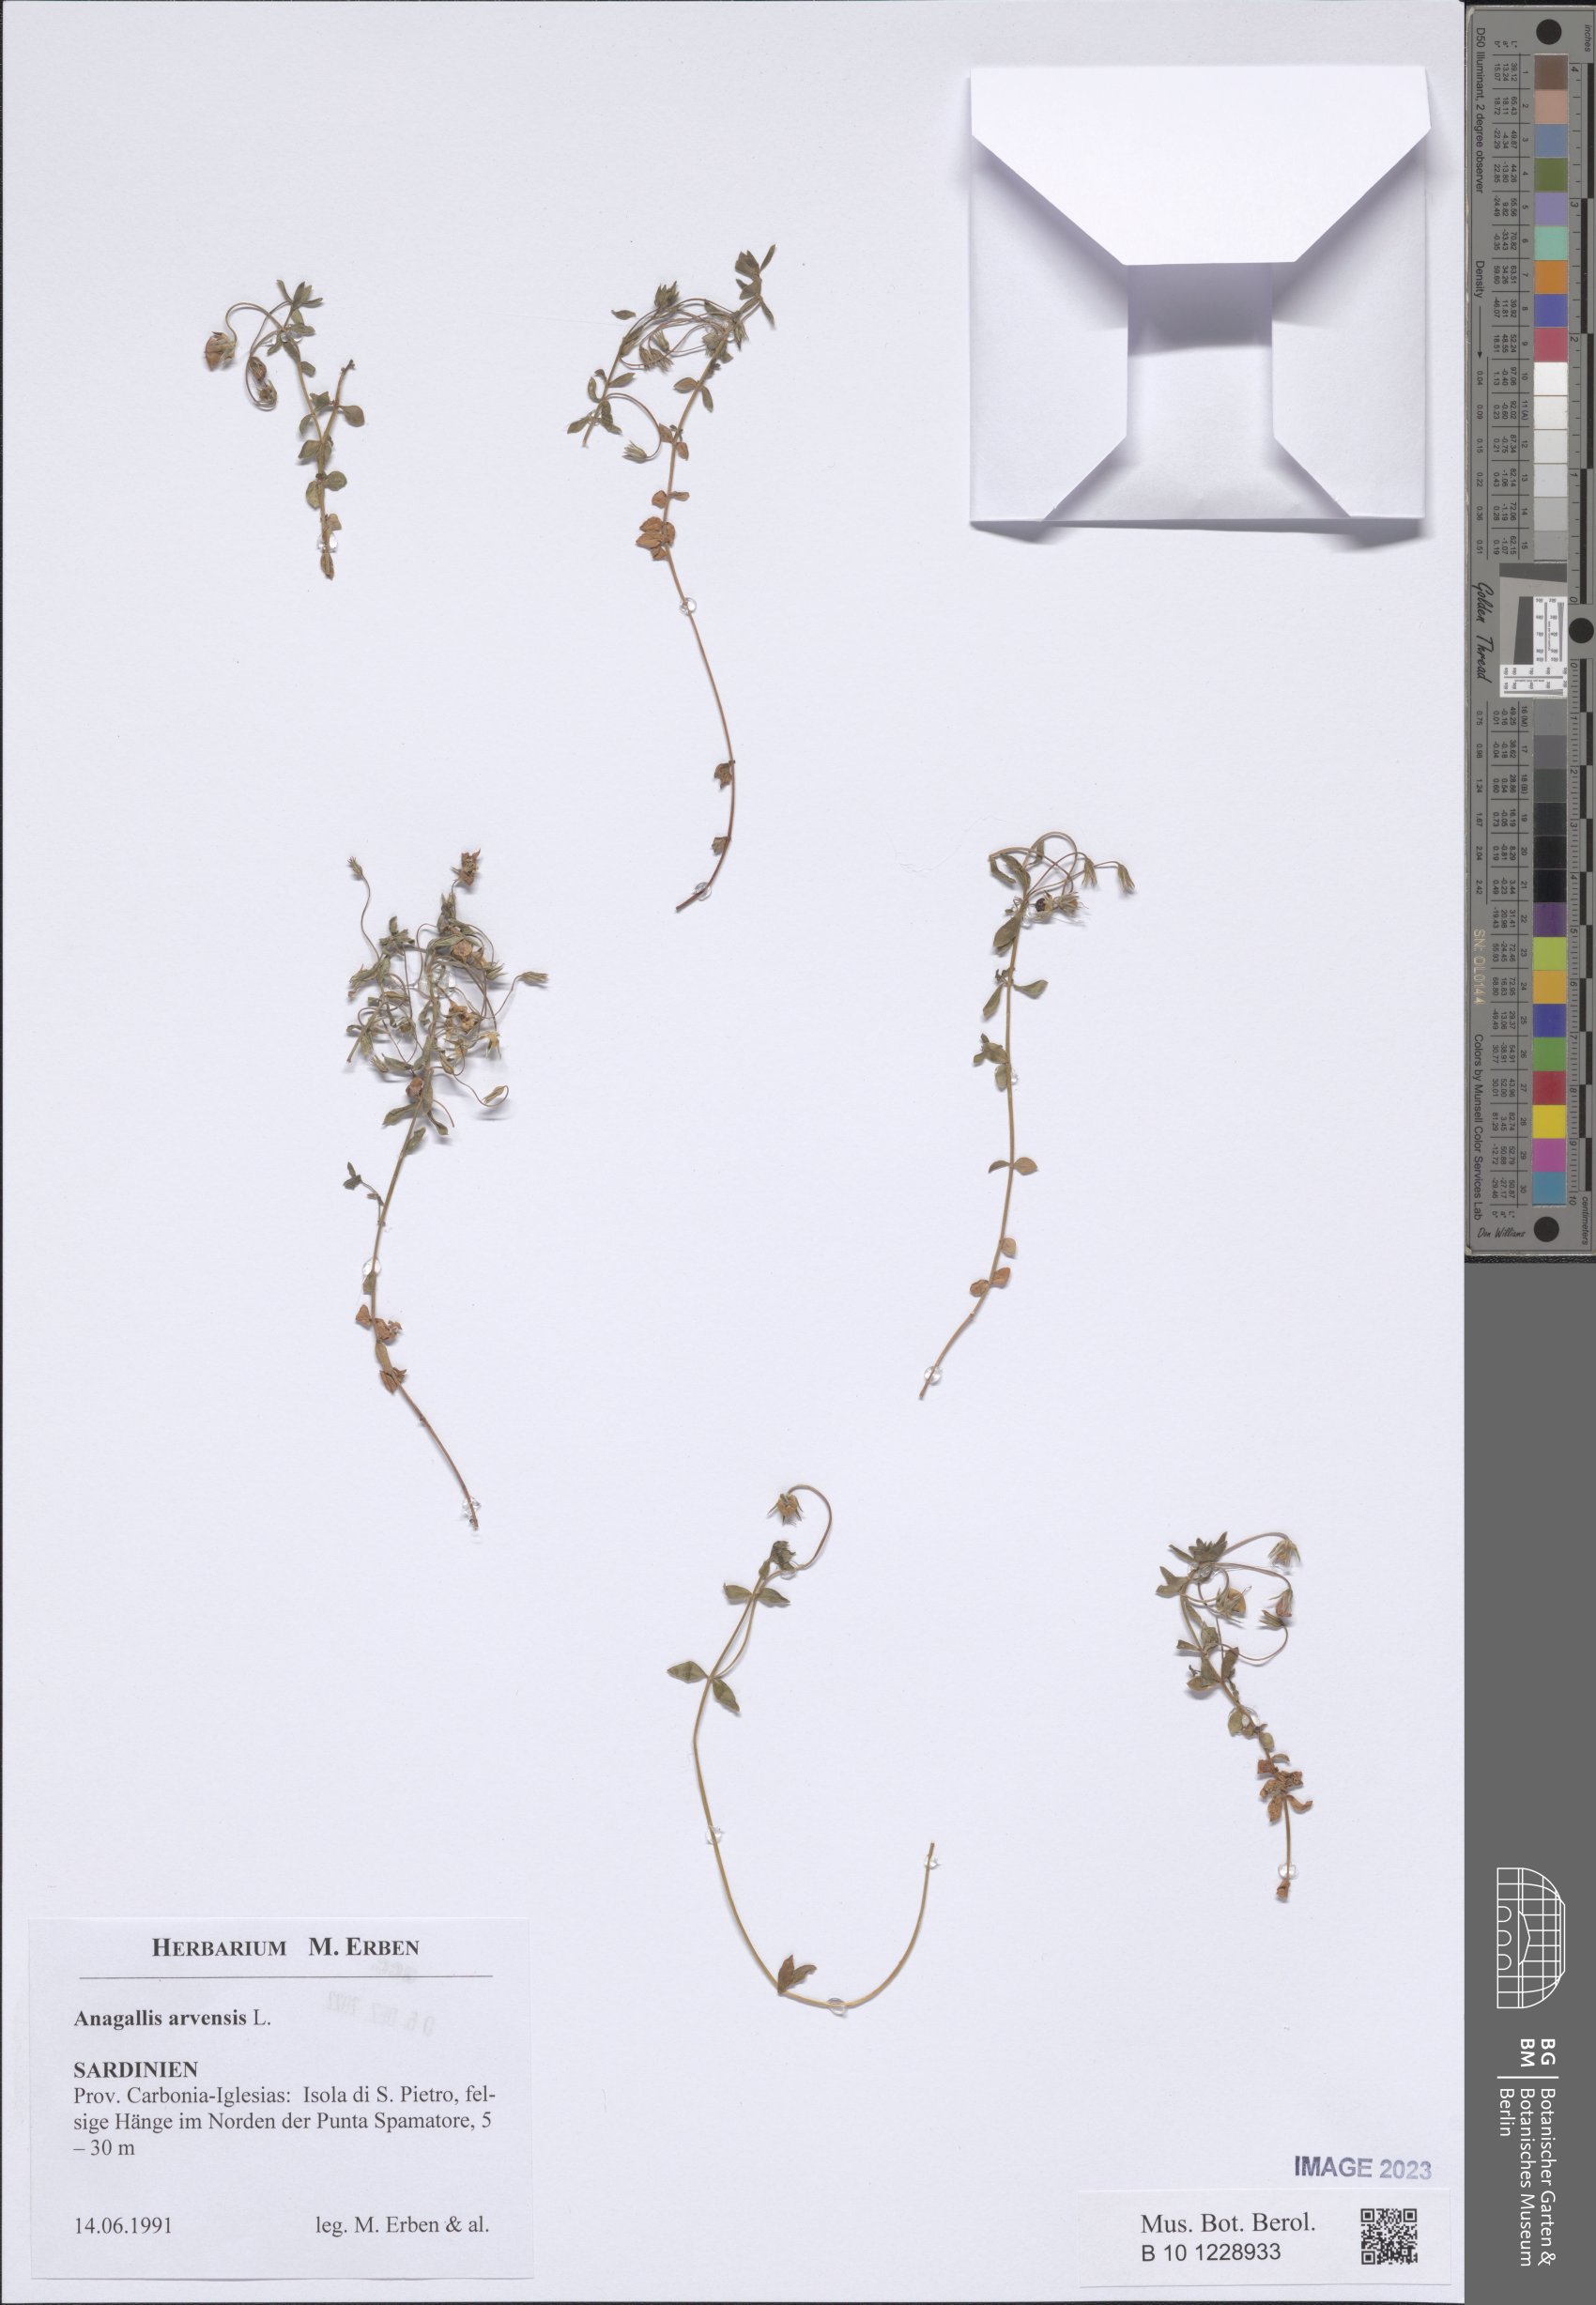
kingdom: Plantae
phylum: Tracheophyta
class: Magnoliopsida
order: Ericales
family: Primulaceae
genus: Lysimachia
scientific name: Lysimachia arvensis
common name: Scarlet pimpernel
